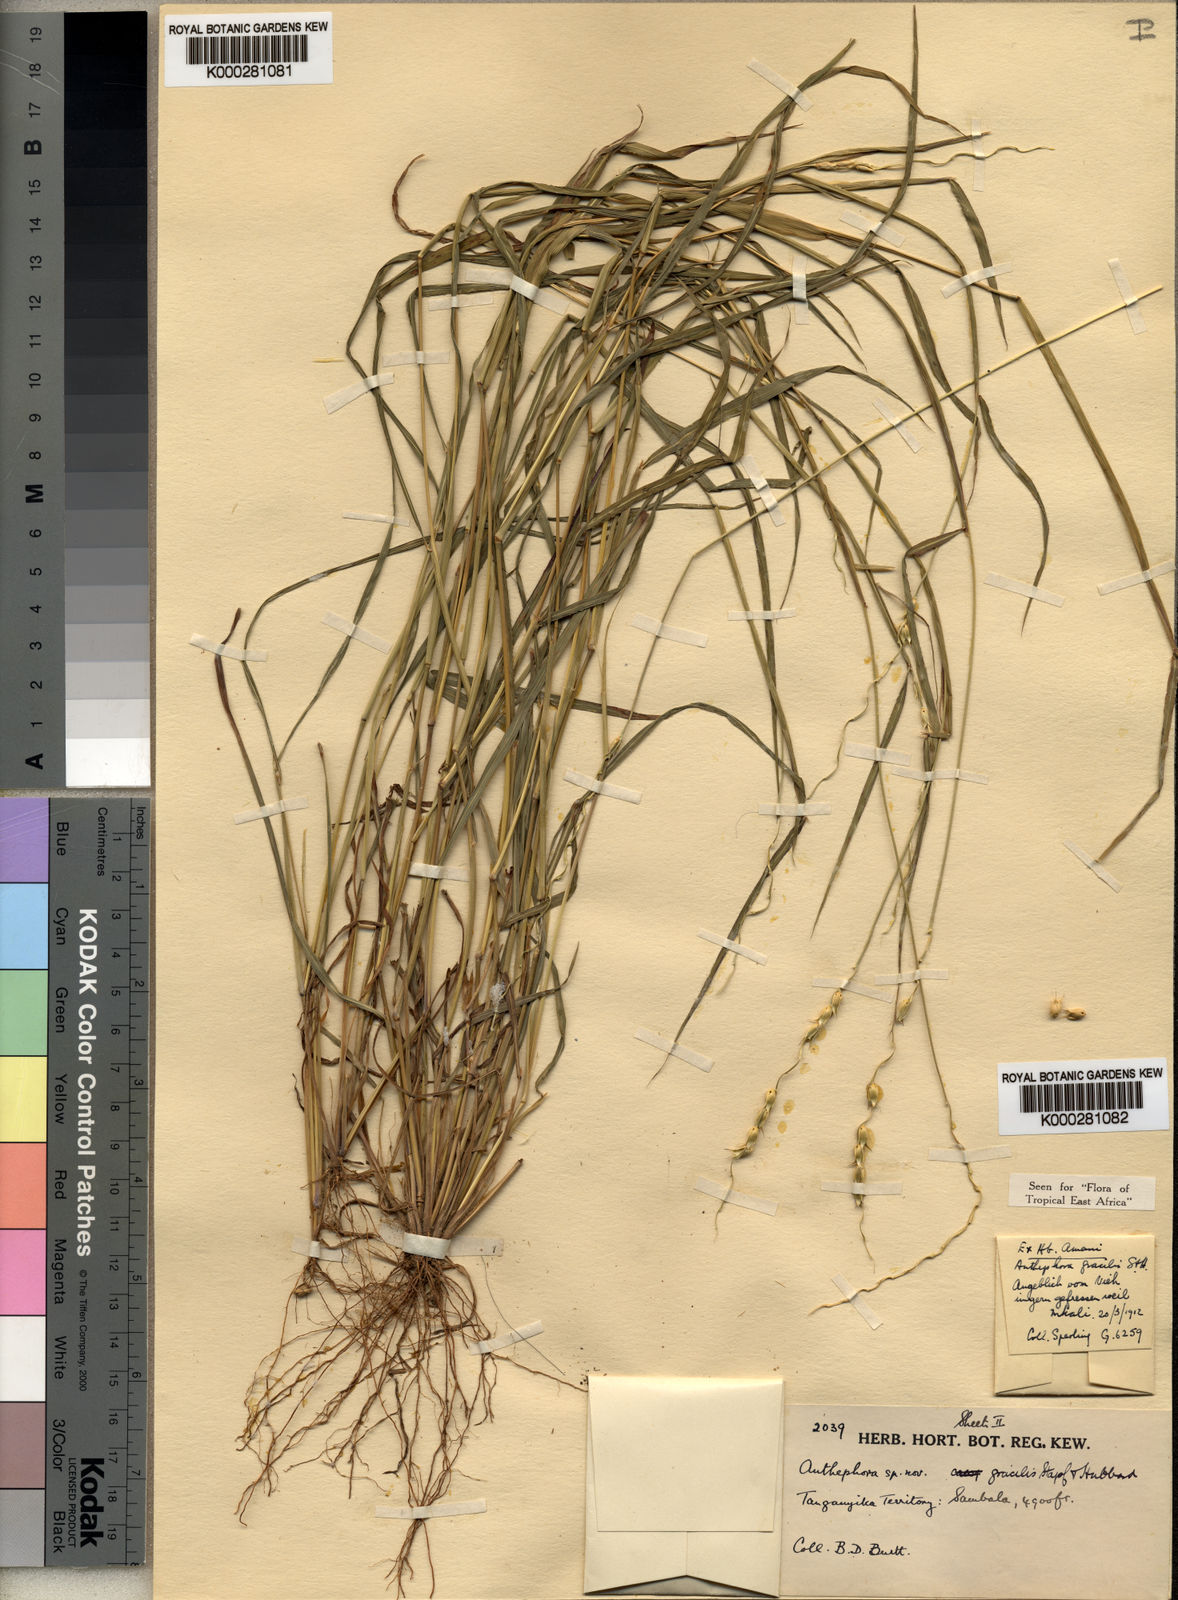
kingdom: Plantae
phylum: Tracheophyta
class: Liliopsida
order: Poales
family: Poaceae
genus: Anthephora
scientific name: Anthephora truncata
